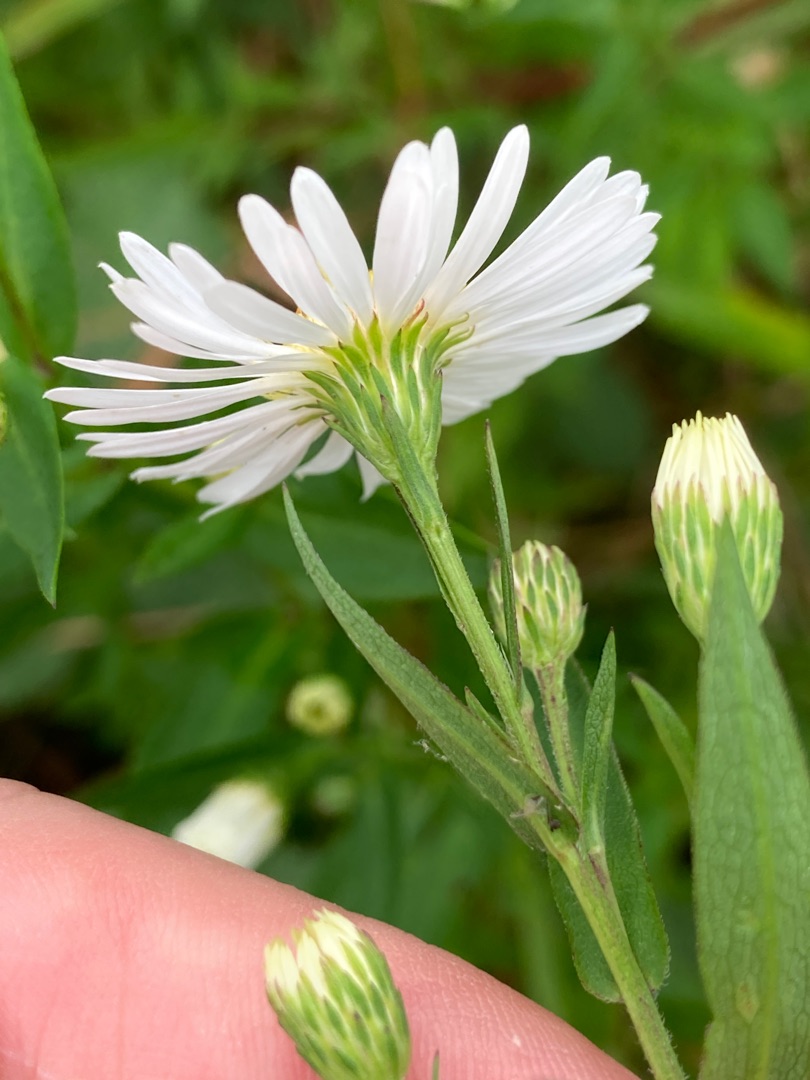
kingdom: Plantae
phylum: Tracheophyta
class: Magnoliopsida
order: Asterales
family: Asteraceae
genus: Symphyotrichum
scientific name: Symphyotrichum lanceolatum
